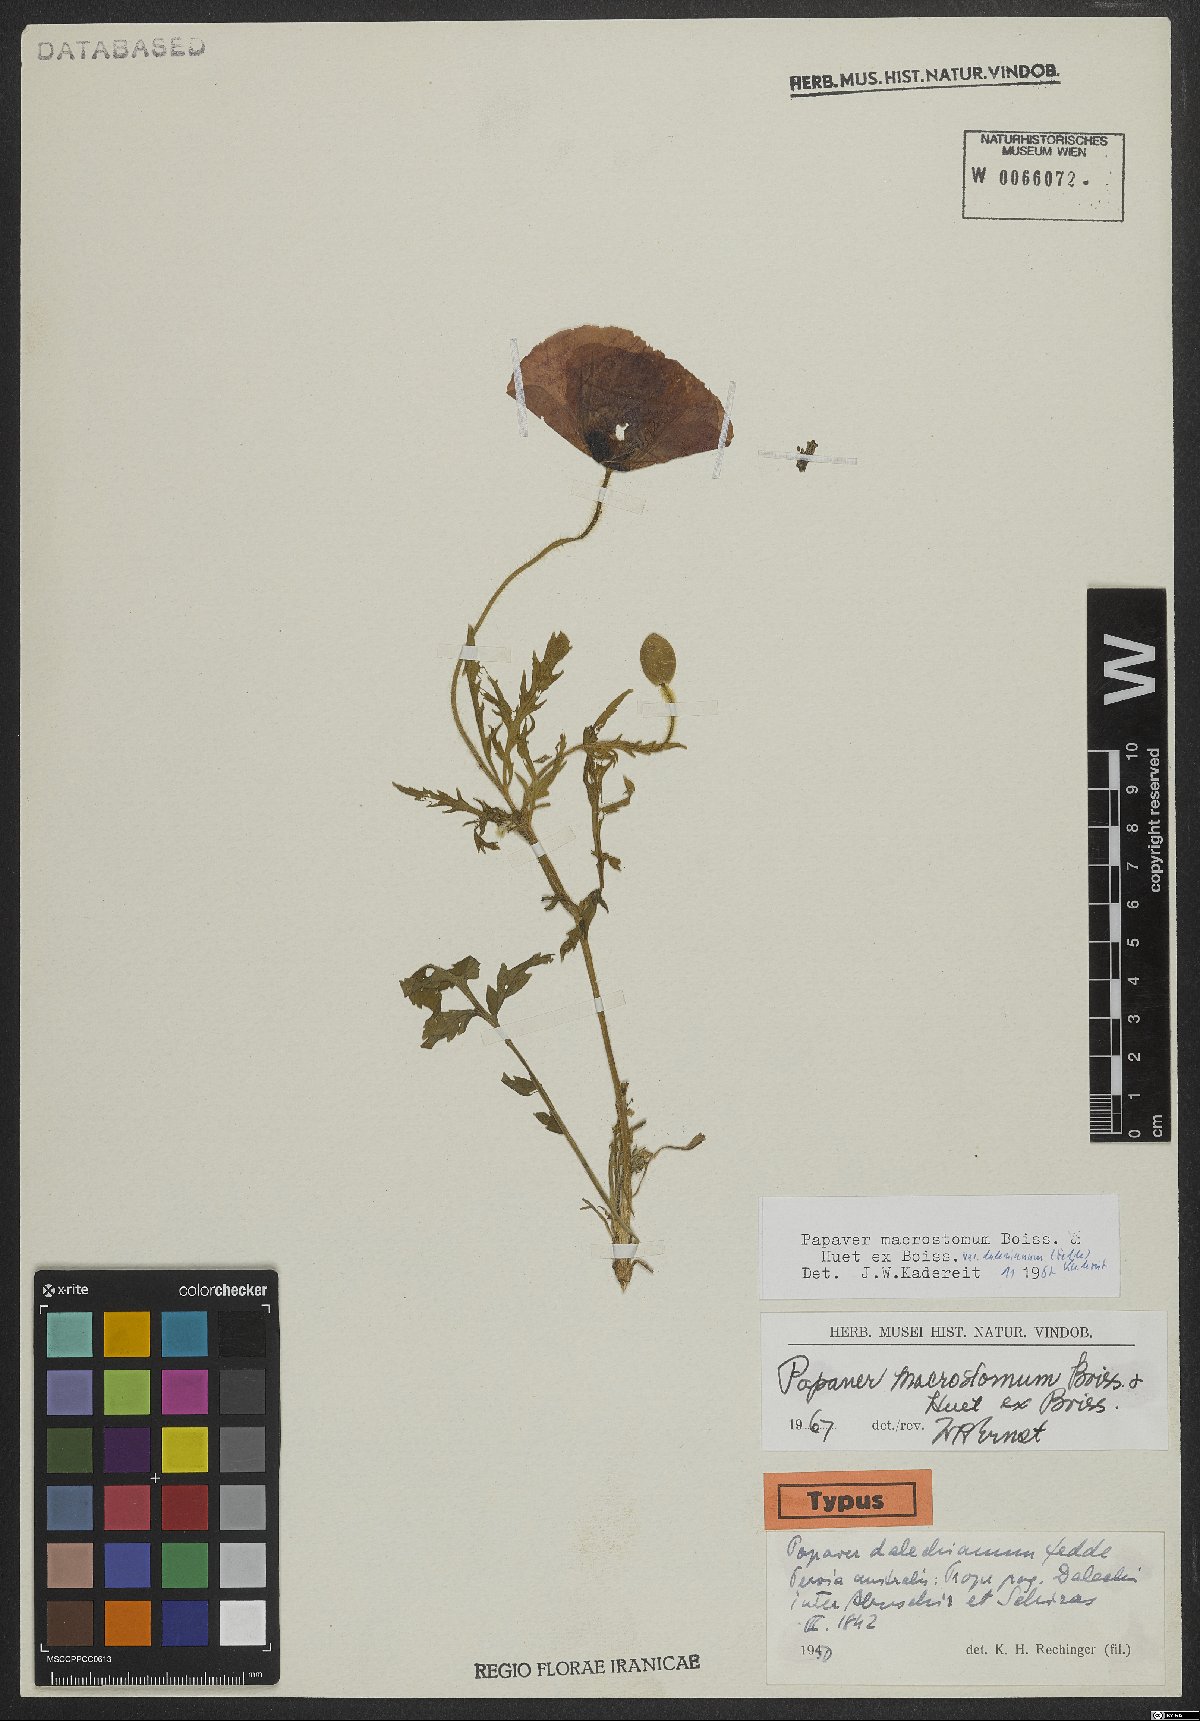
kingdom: Plantae
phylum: Tracheophyta
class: Magnoliopsida
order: Ranunculales
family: Papaveraceae
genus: Papaver
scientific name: Papaver macrostomum
